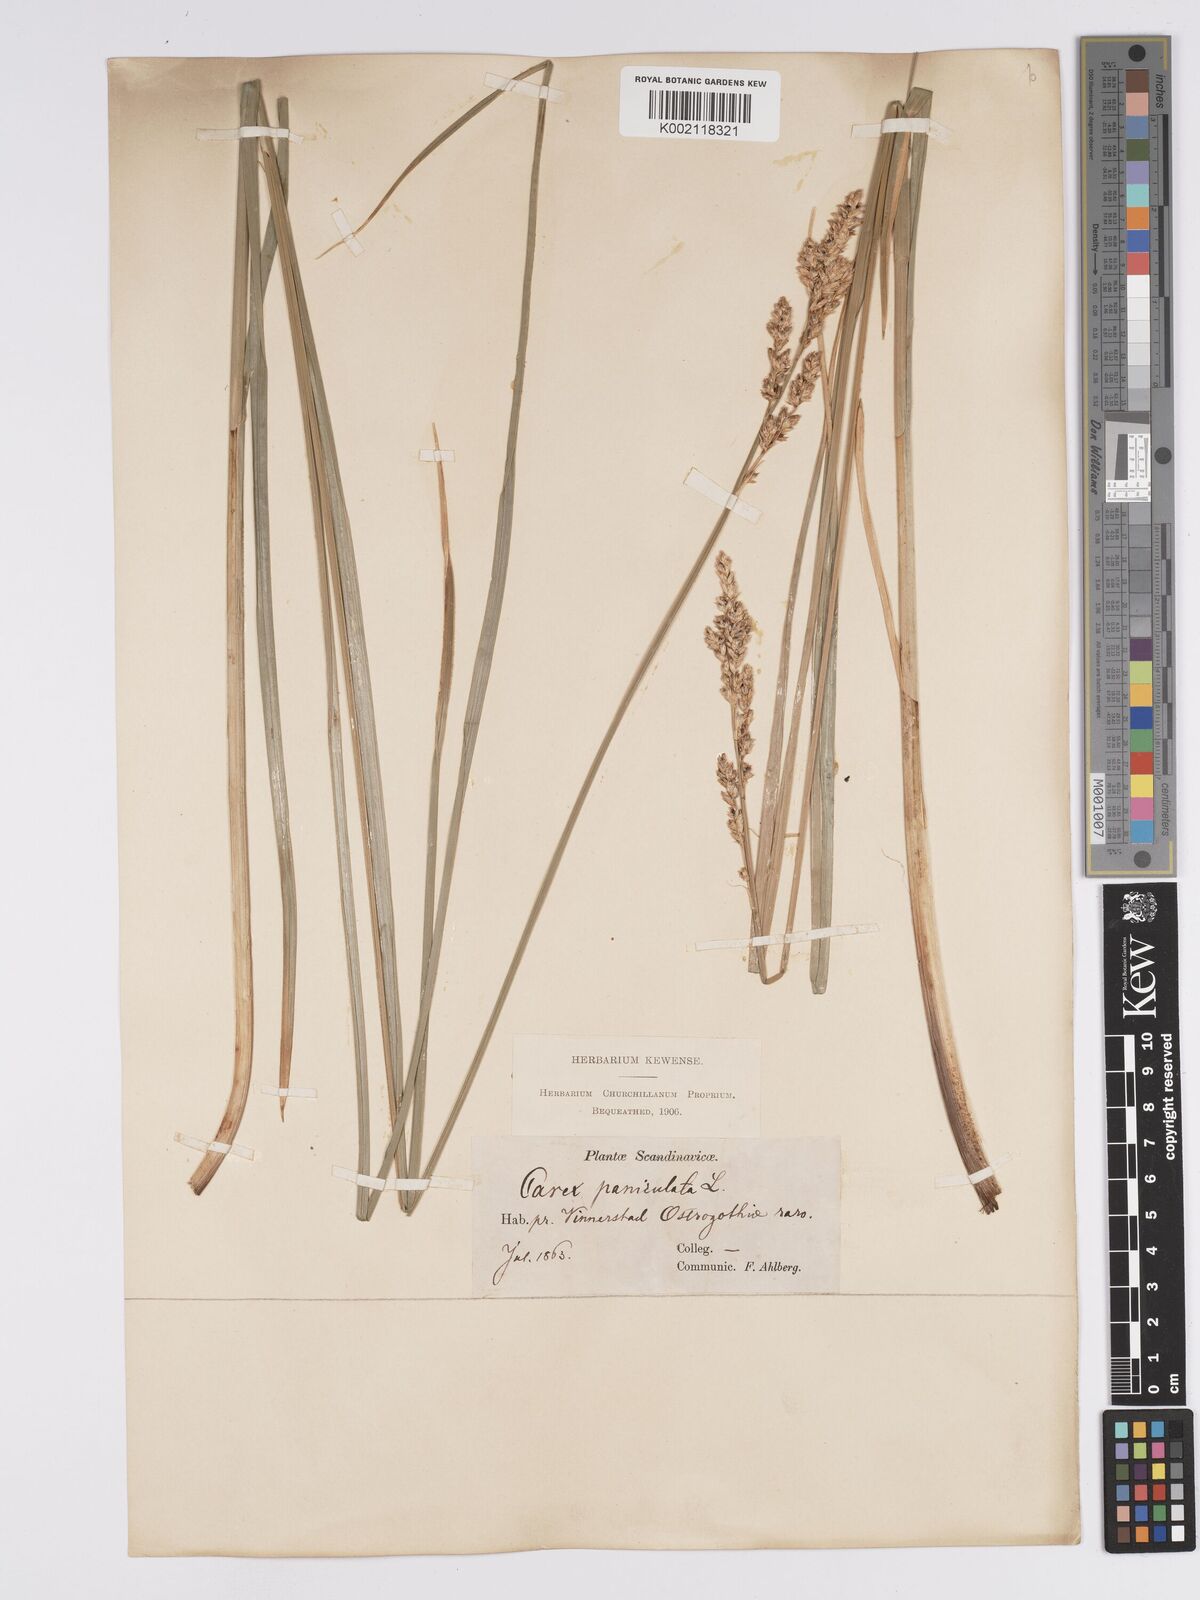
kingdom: Plantae
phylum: Tracheophyta
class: Liliopsida
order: Poales
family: Cyperaceae
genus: Carex
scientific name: Carex paniculata
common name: Greater tussock-sedge
